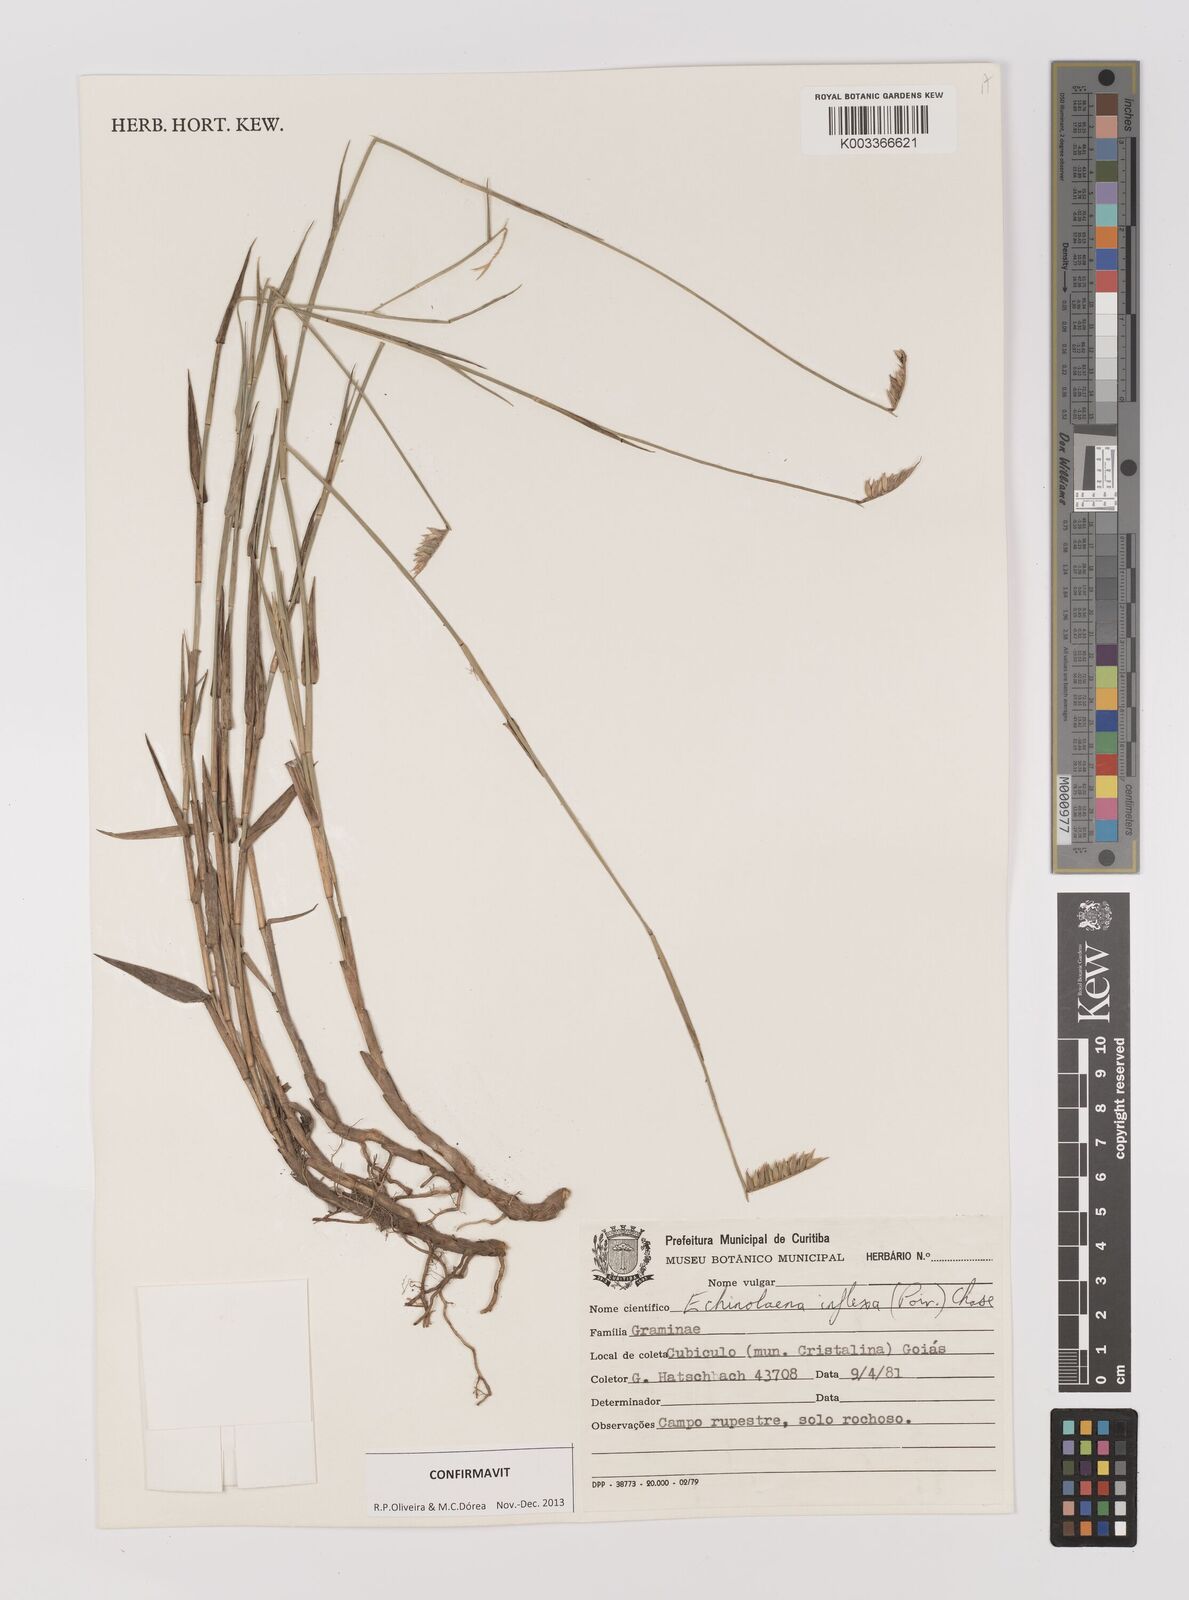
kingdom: Plantae
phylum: Tracheophyta
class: Liliopsida
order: Poales
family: Poaceae
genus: Echinolaena
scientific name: Echinolaena inflexa
